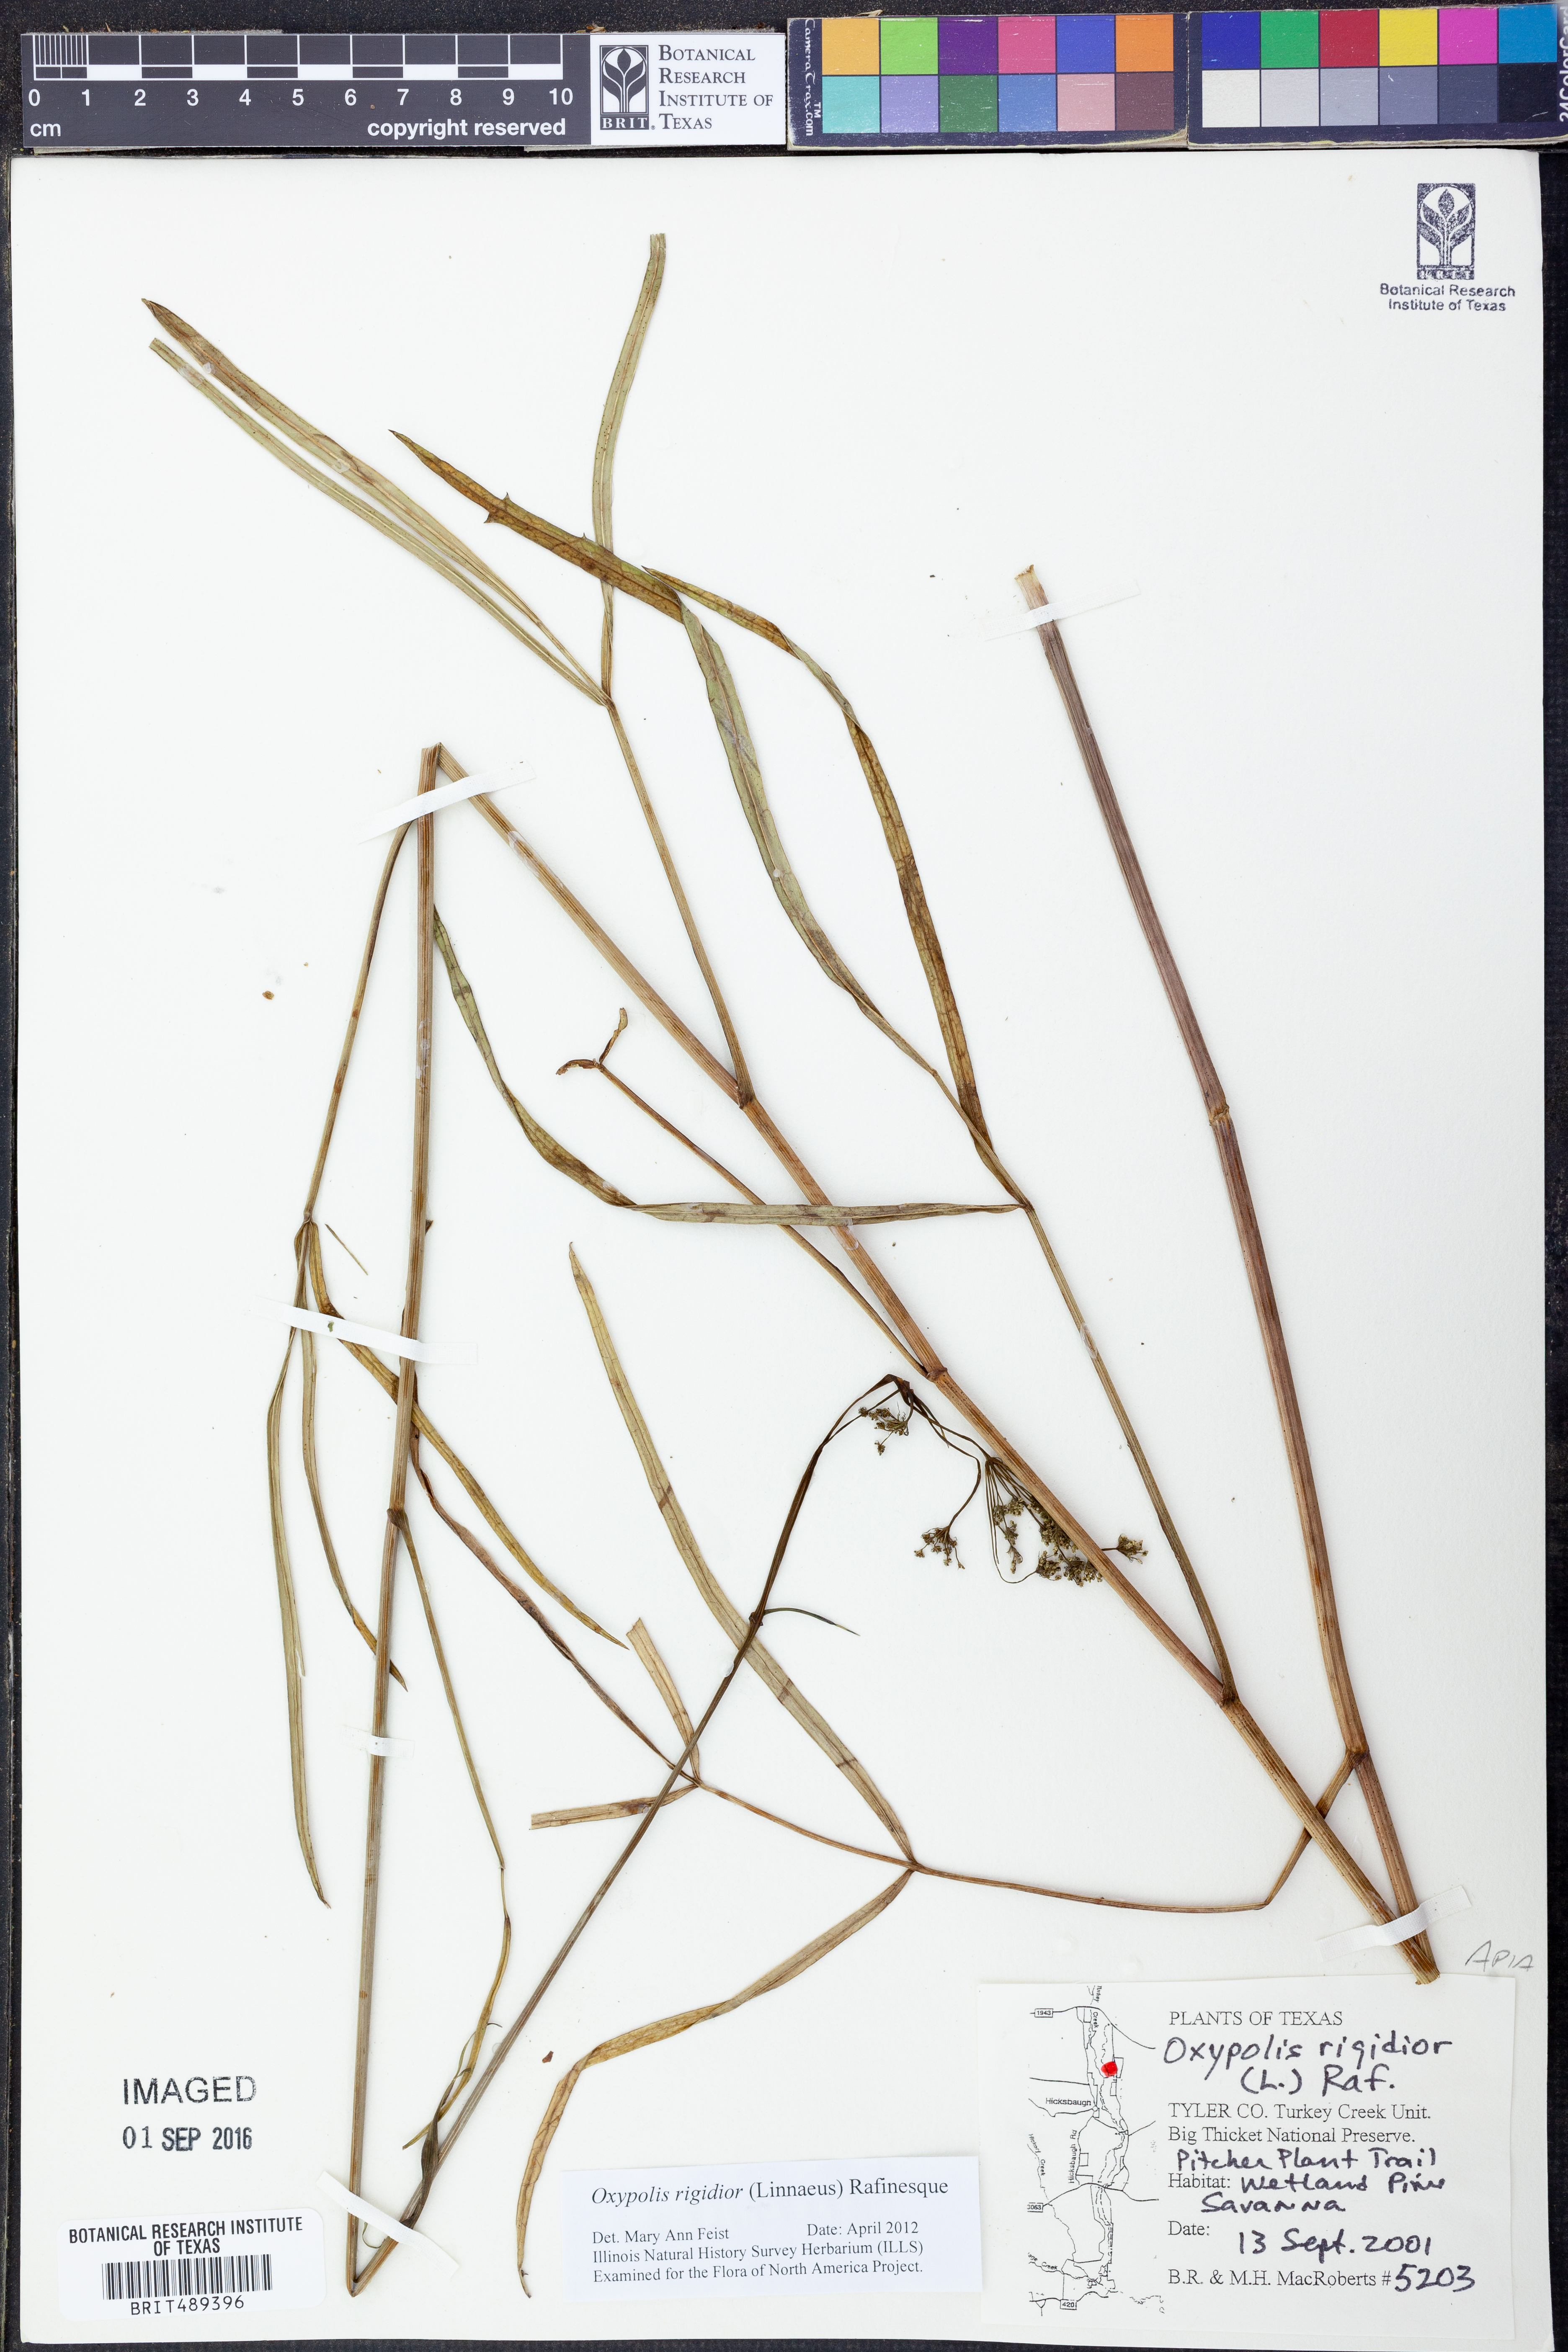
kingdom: Plantae
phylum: Tracheophyta
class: Magnoliopsida
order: Apiales
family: Apiaceae
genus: Oxypolis
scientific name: Oxypolis rigidior
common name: Cowbane
